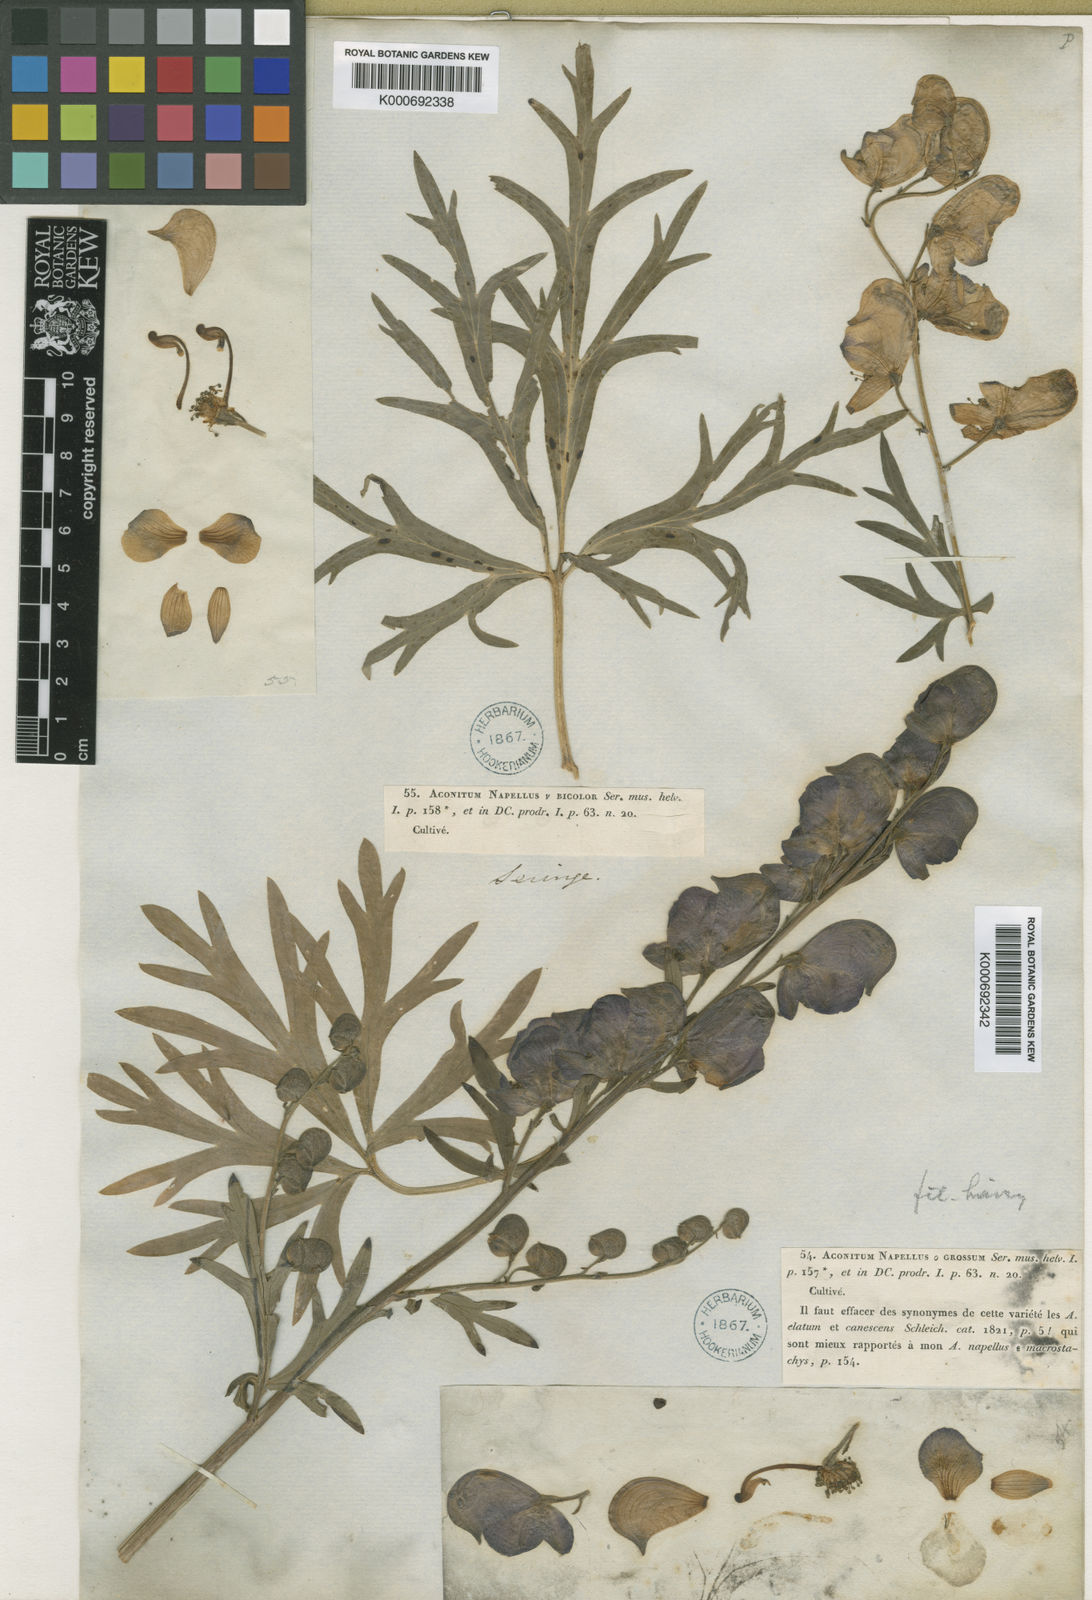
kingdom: Plantae
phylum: Tracheophyta
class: Magnoliopsida
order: Ranunculales
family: Ranunculaceae
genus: Aconitum
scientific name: Aconitum napellus
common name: Garden monkshood
